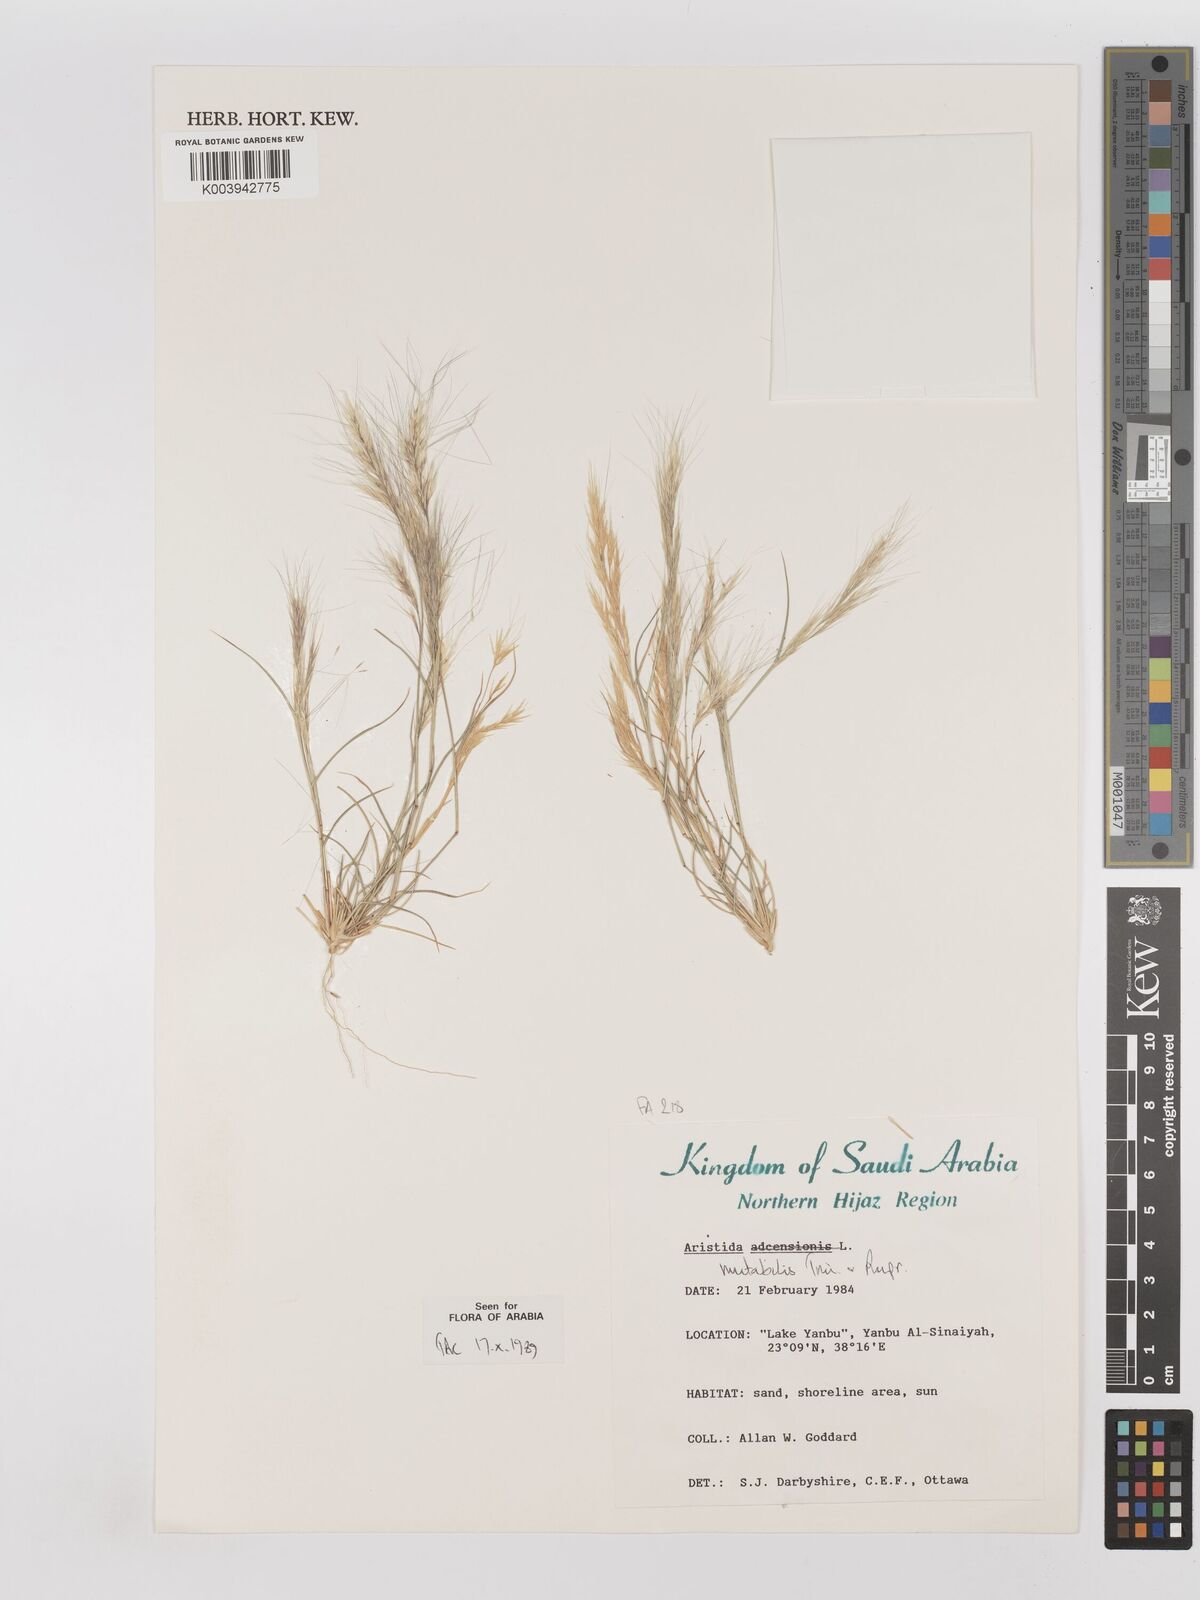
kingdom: Plantae
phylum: Tracheophyta
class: Liliopsida
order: Poales
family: Poaceae
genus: Aristida
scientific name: Aristida mutabilis
